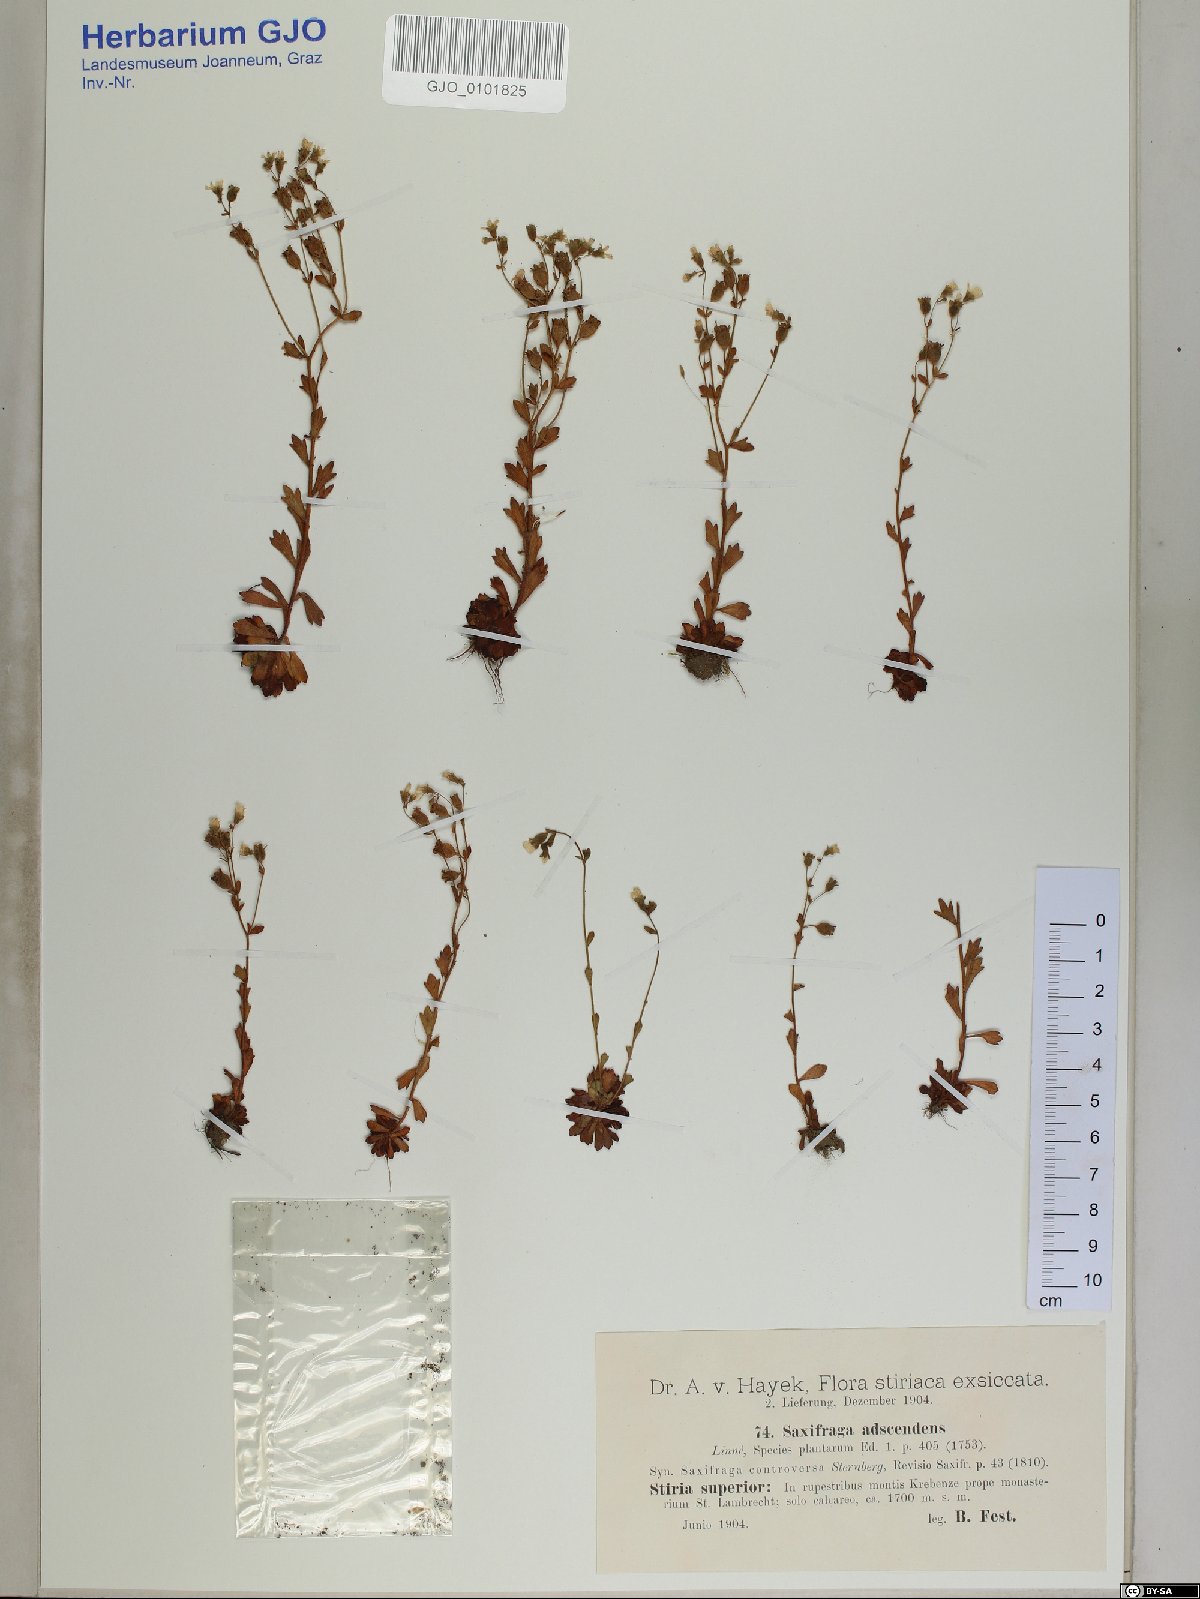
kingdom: Plantae
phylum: Tracheophyta
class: Magnoliopsida
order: Saxifragales
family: Saxifragaceae
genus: Saxifraga
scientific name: Saxifraga adscendens
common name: Ascending saxifrage
